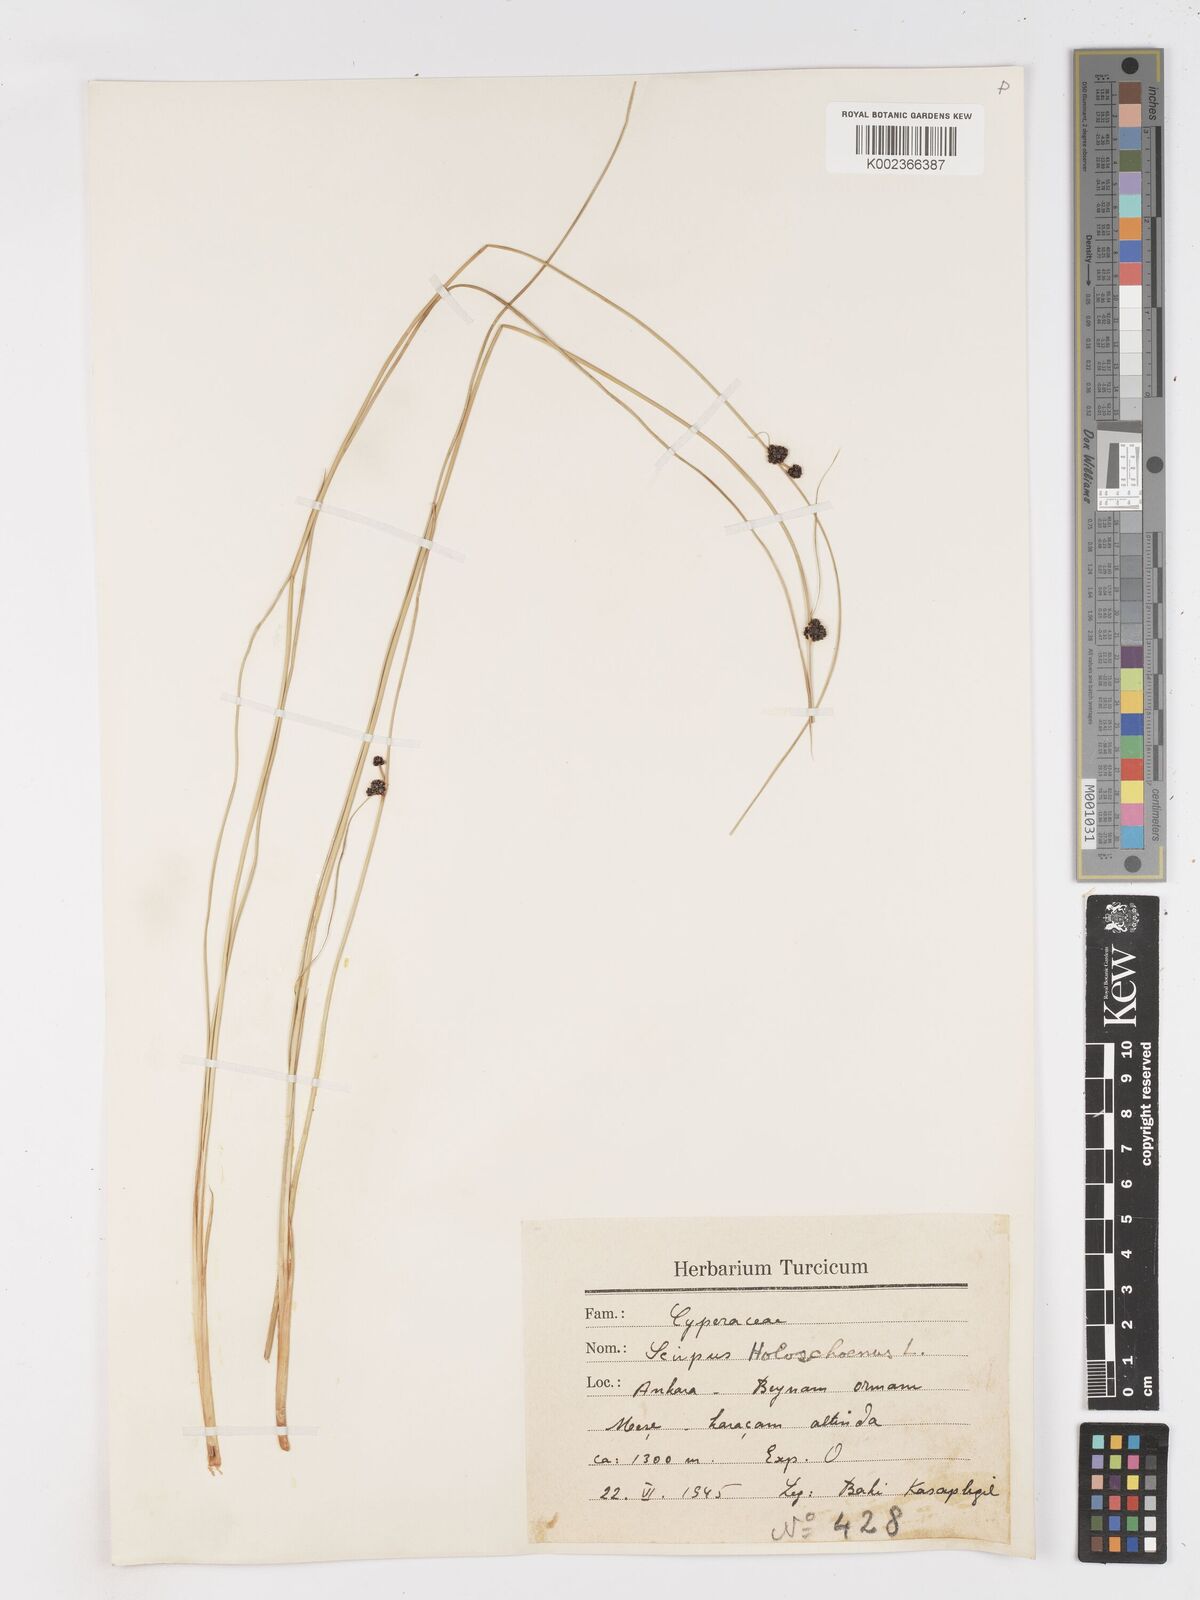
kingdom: Plantae
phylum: Tracheophyta
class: Liliopsida
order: Poales
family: Cyperaceae
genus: Scirpoides
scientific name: Scirpoides holoschoenus
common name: Round-headed club-rush
